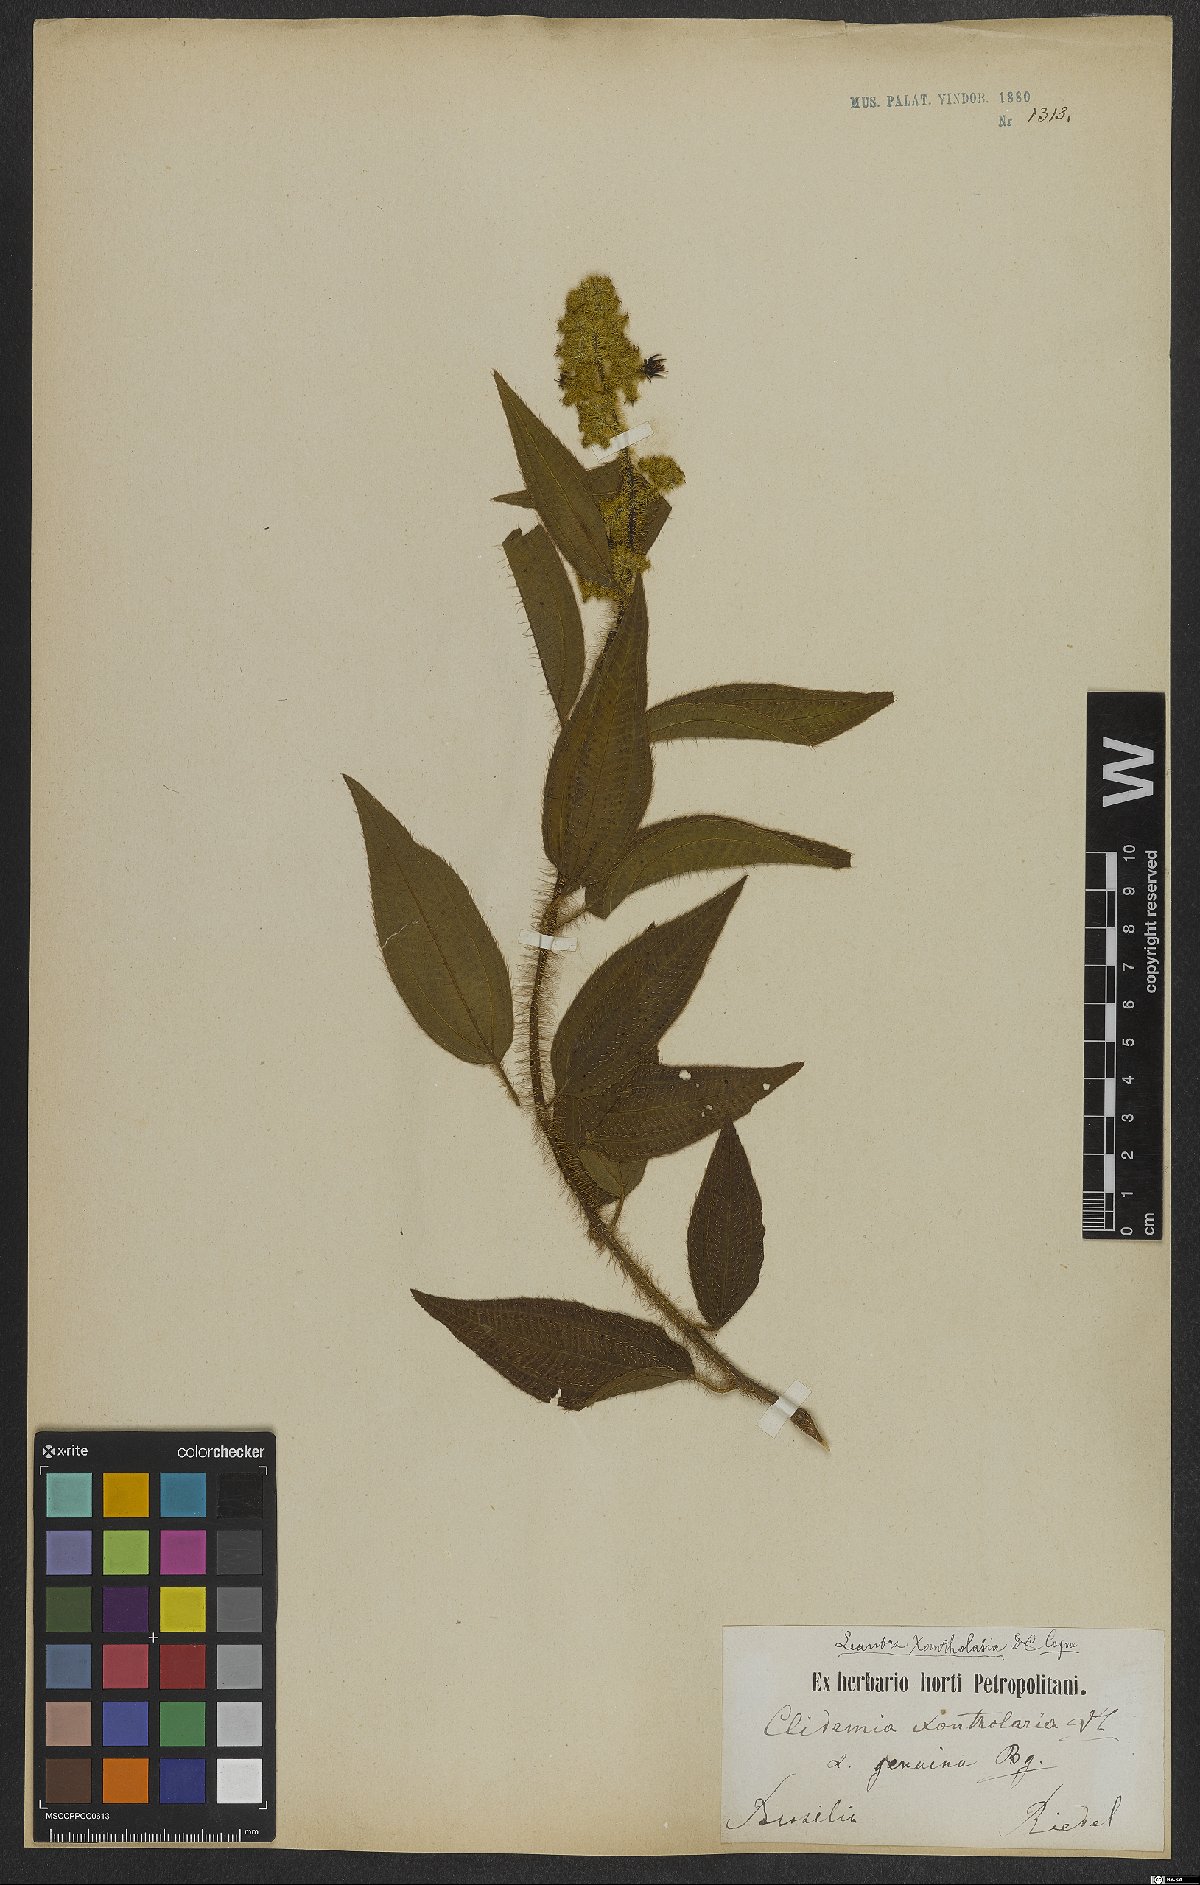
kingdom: Plantae
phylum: Tracheophyta
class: Magnoliopsida
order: Myrtales
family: Melastomataceae
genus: Miconia
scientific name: Miconia xantholasia
